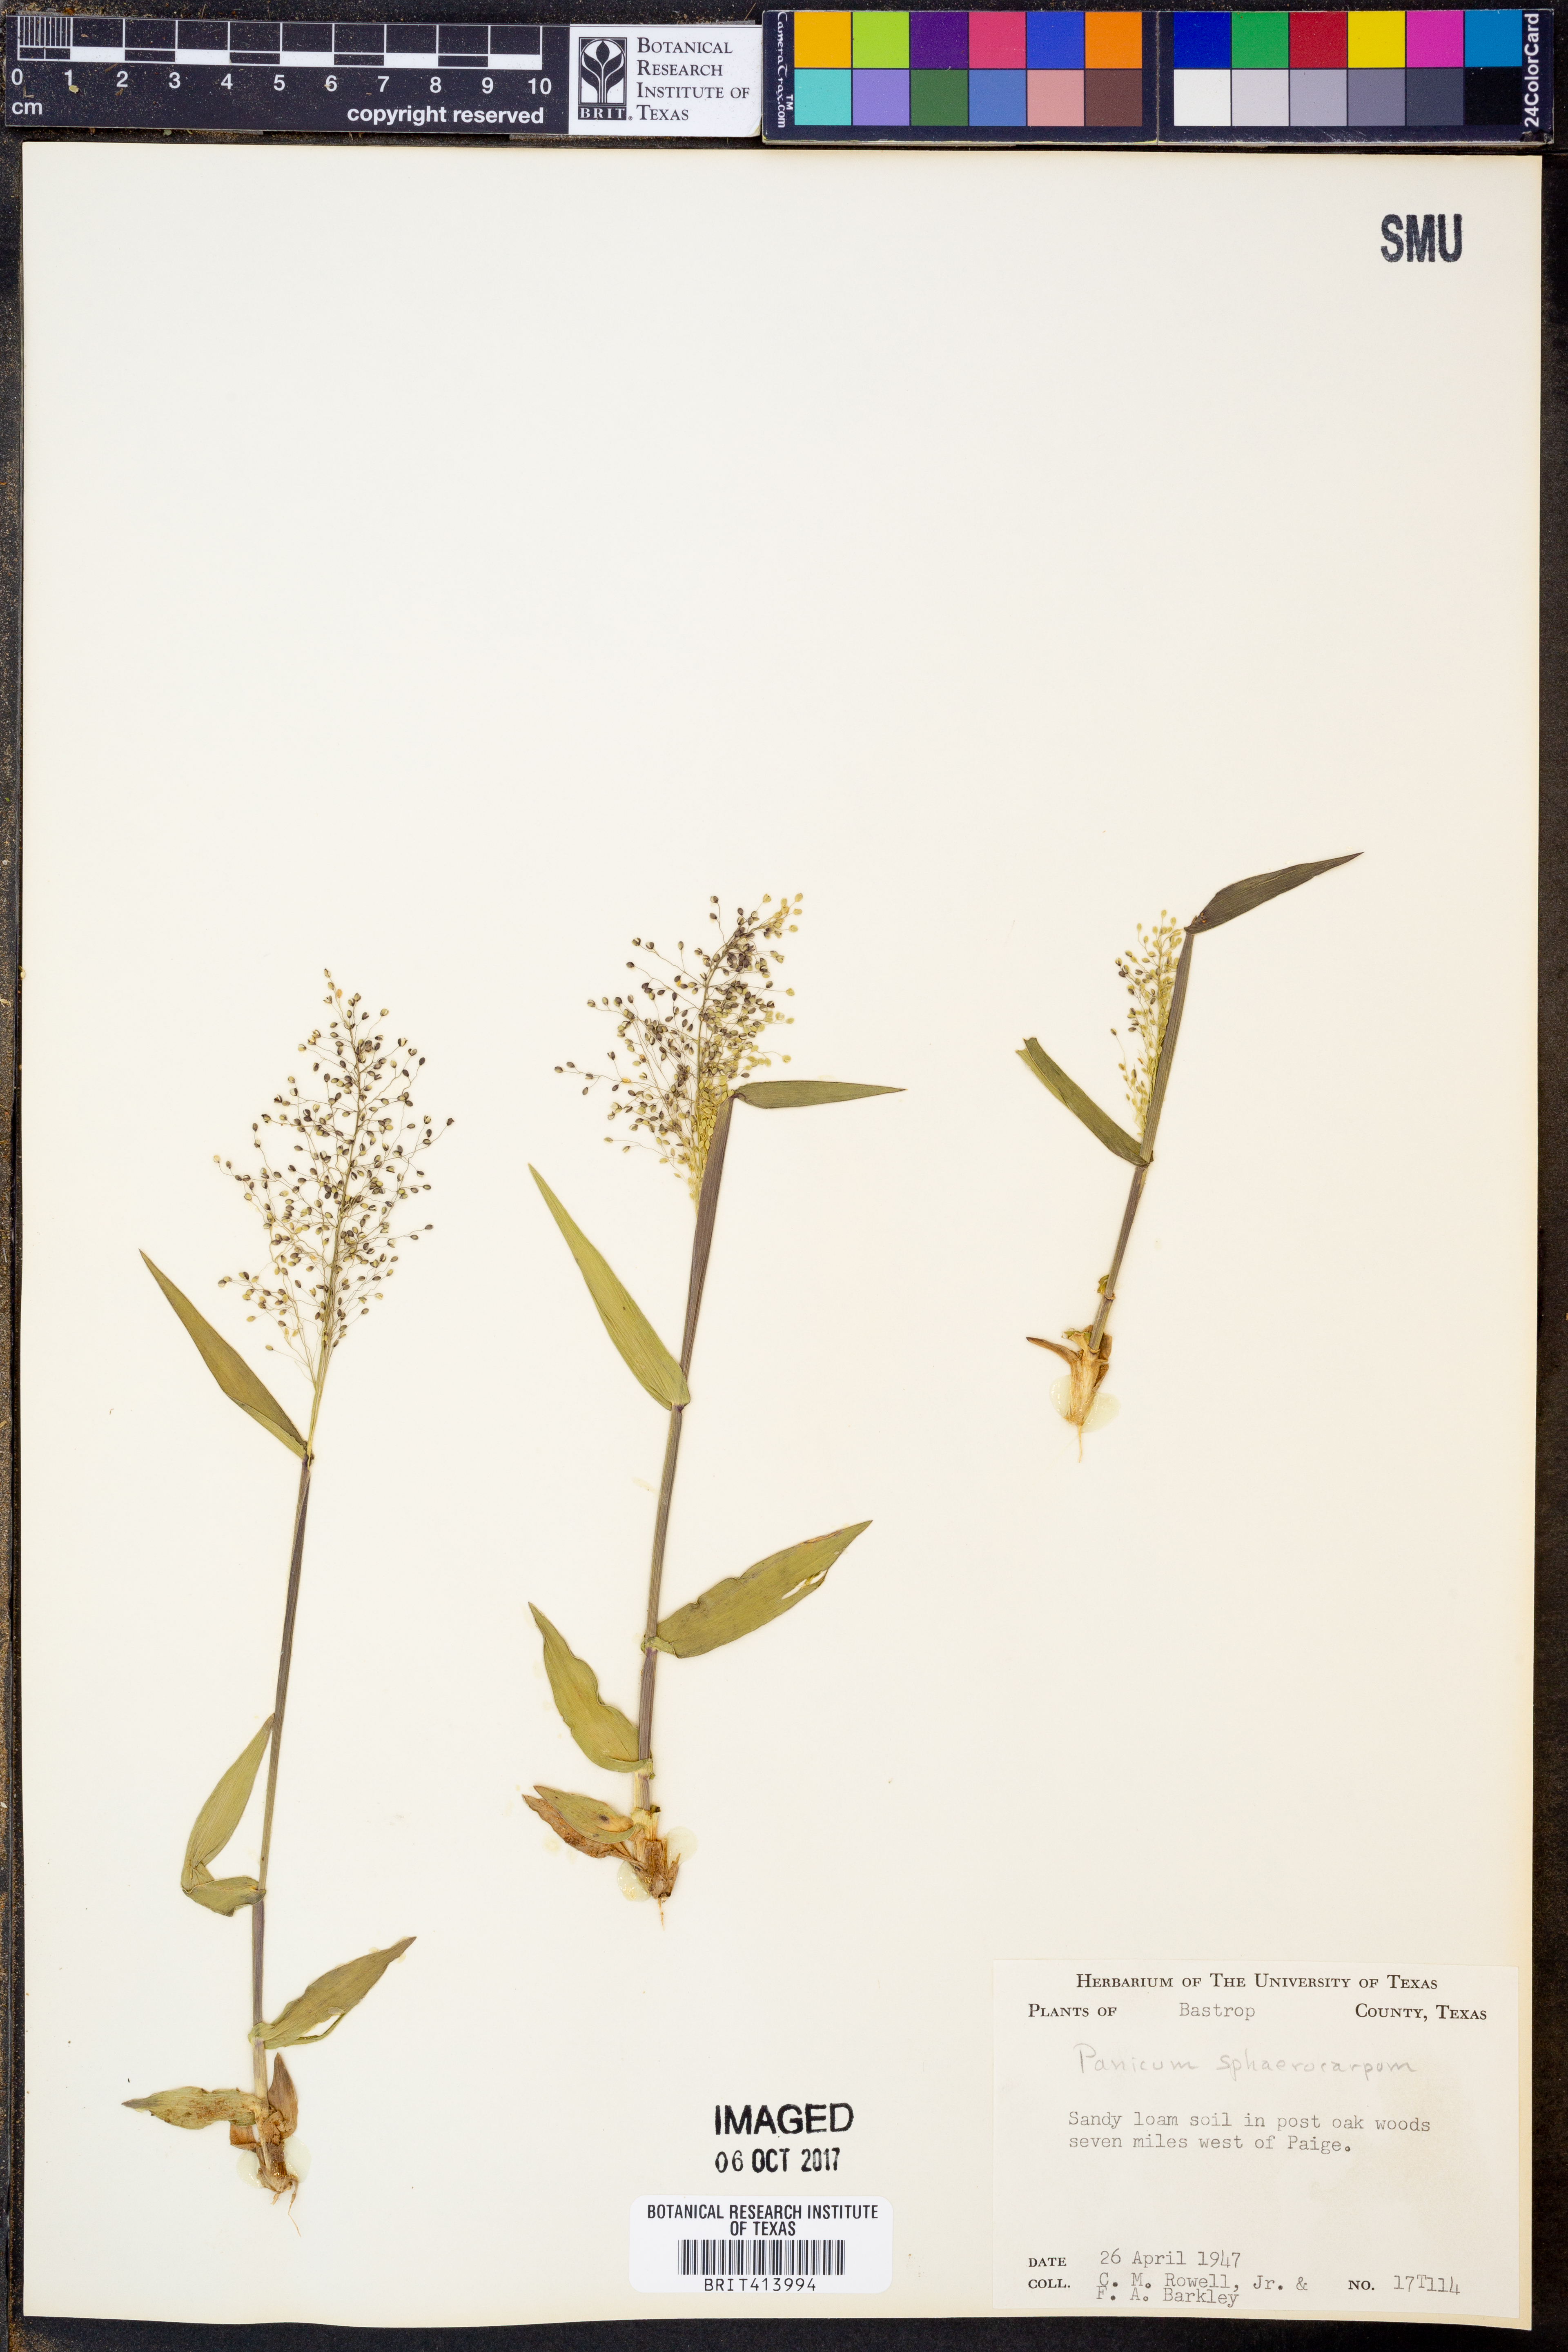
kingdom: Plantae
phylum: Tracheophyta
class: Liliopsida
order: Poales
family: Poaceae
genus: Dichanthelium
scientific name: Dichanthelium sphaerocarpon
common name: Round-fruited panicgrass
